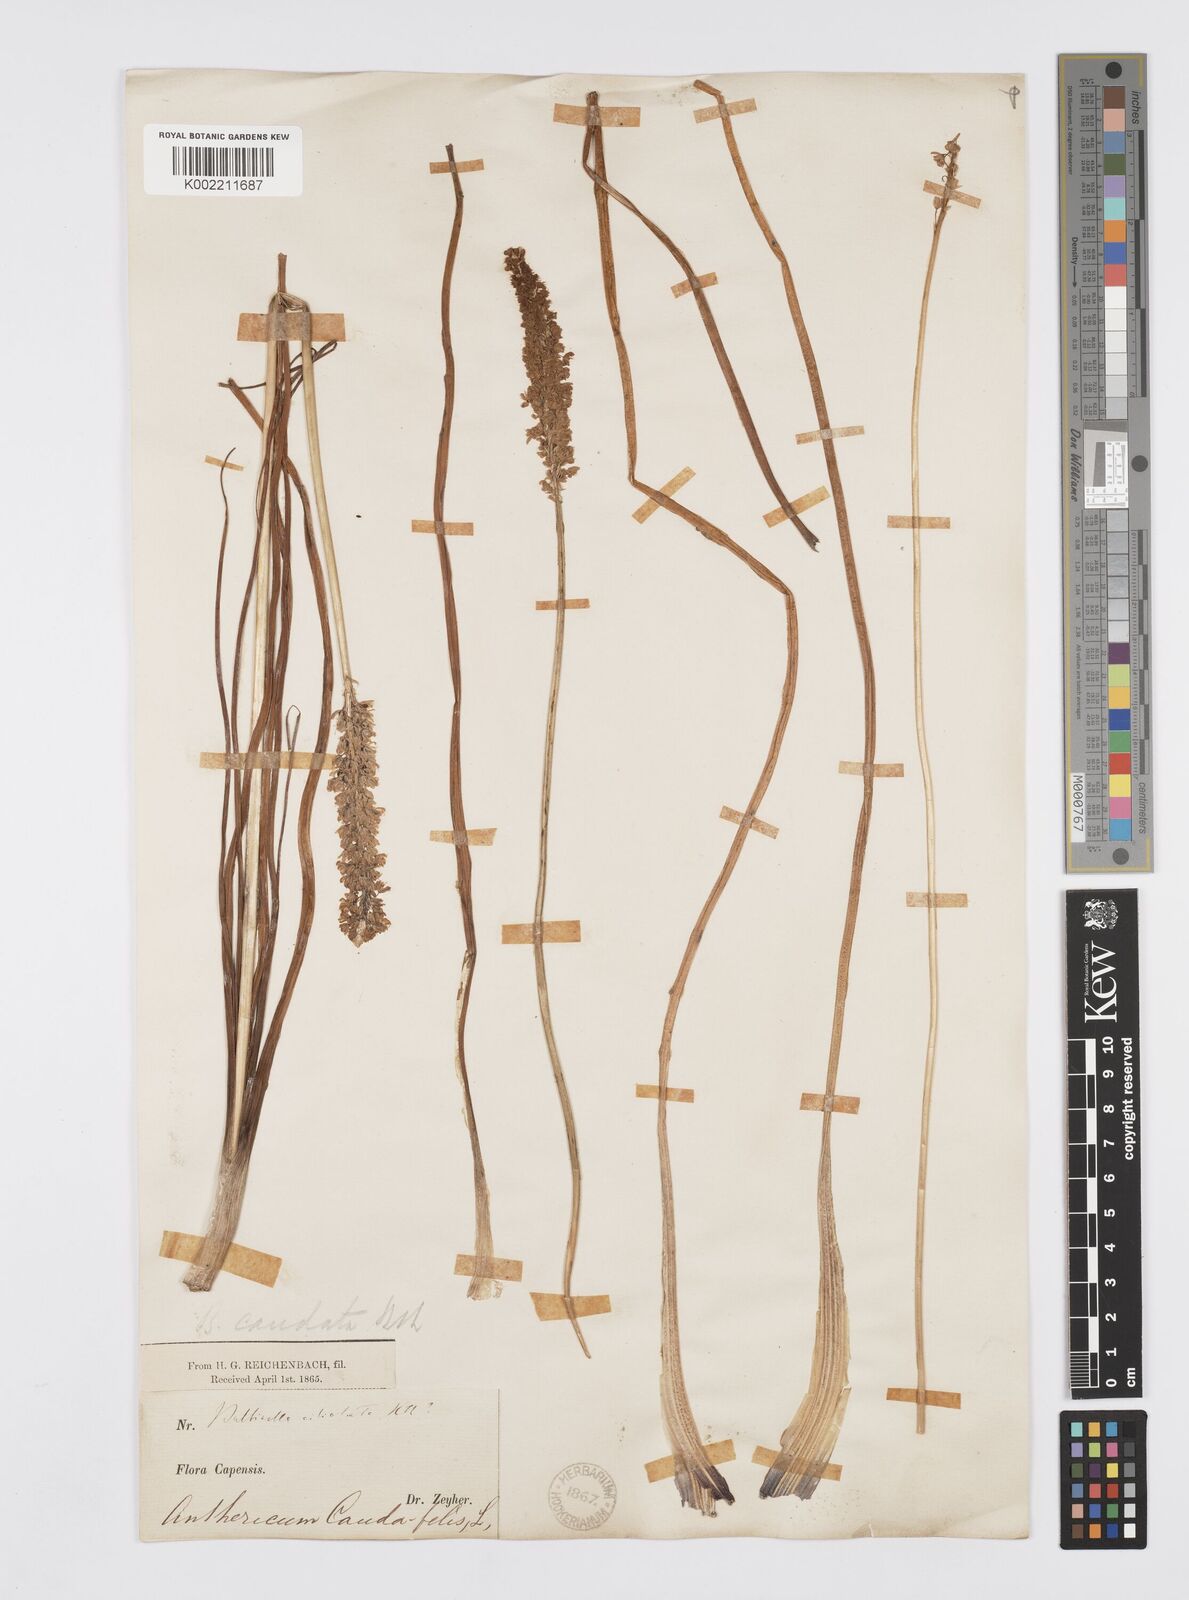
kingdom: Plantae
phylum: Tracheophyta
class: Liliopsida
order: Asparagales
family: Asphodelaceae
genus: Bulbinella
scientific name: Bulbinella cauda-felis
